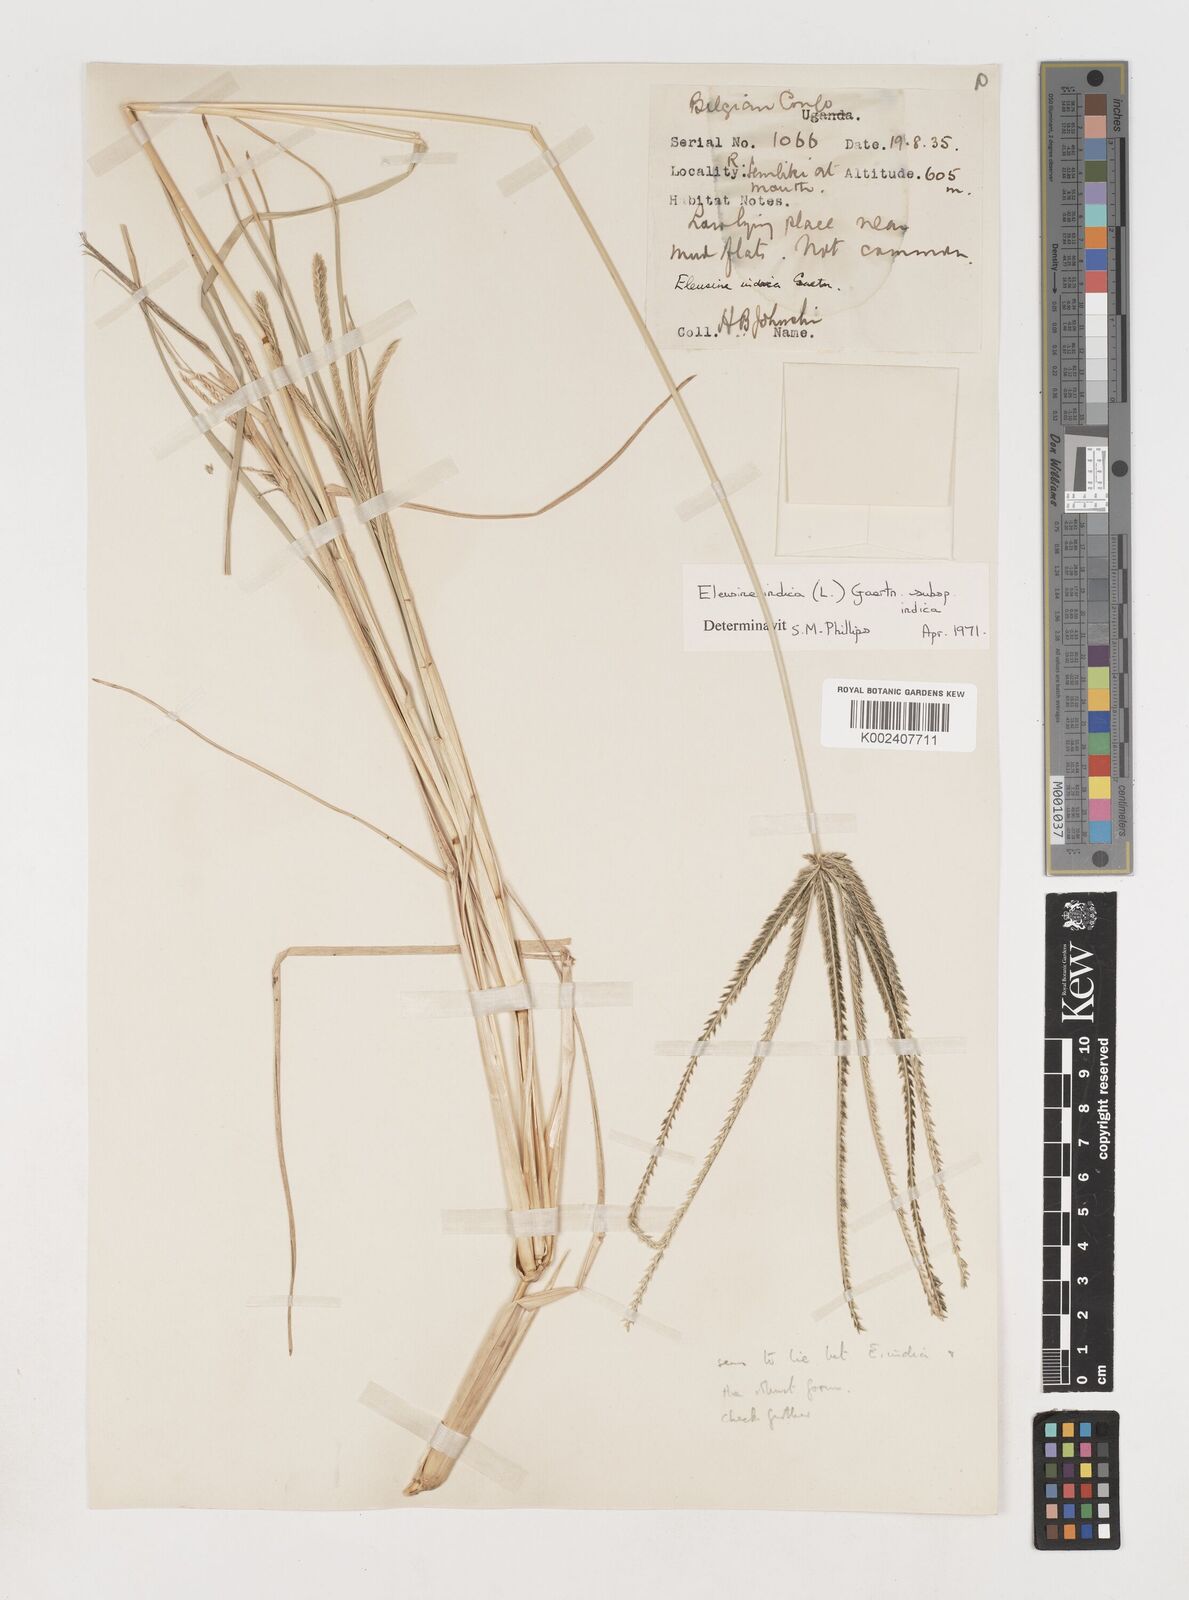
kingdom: Plantae
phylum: Tracheophyta
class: Liliopsida
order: Poales
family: Poaceae
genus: Eleusine
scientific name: Eleusine indica
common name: Yard-grass
